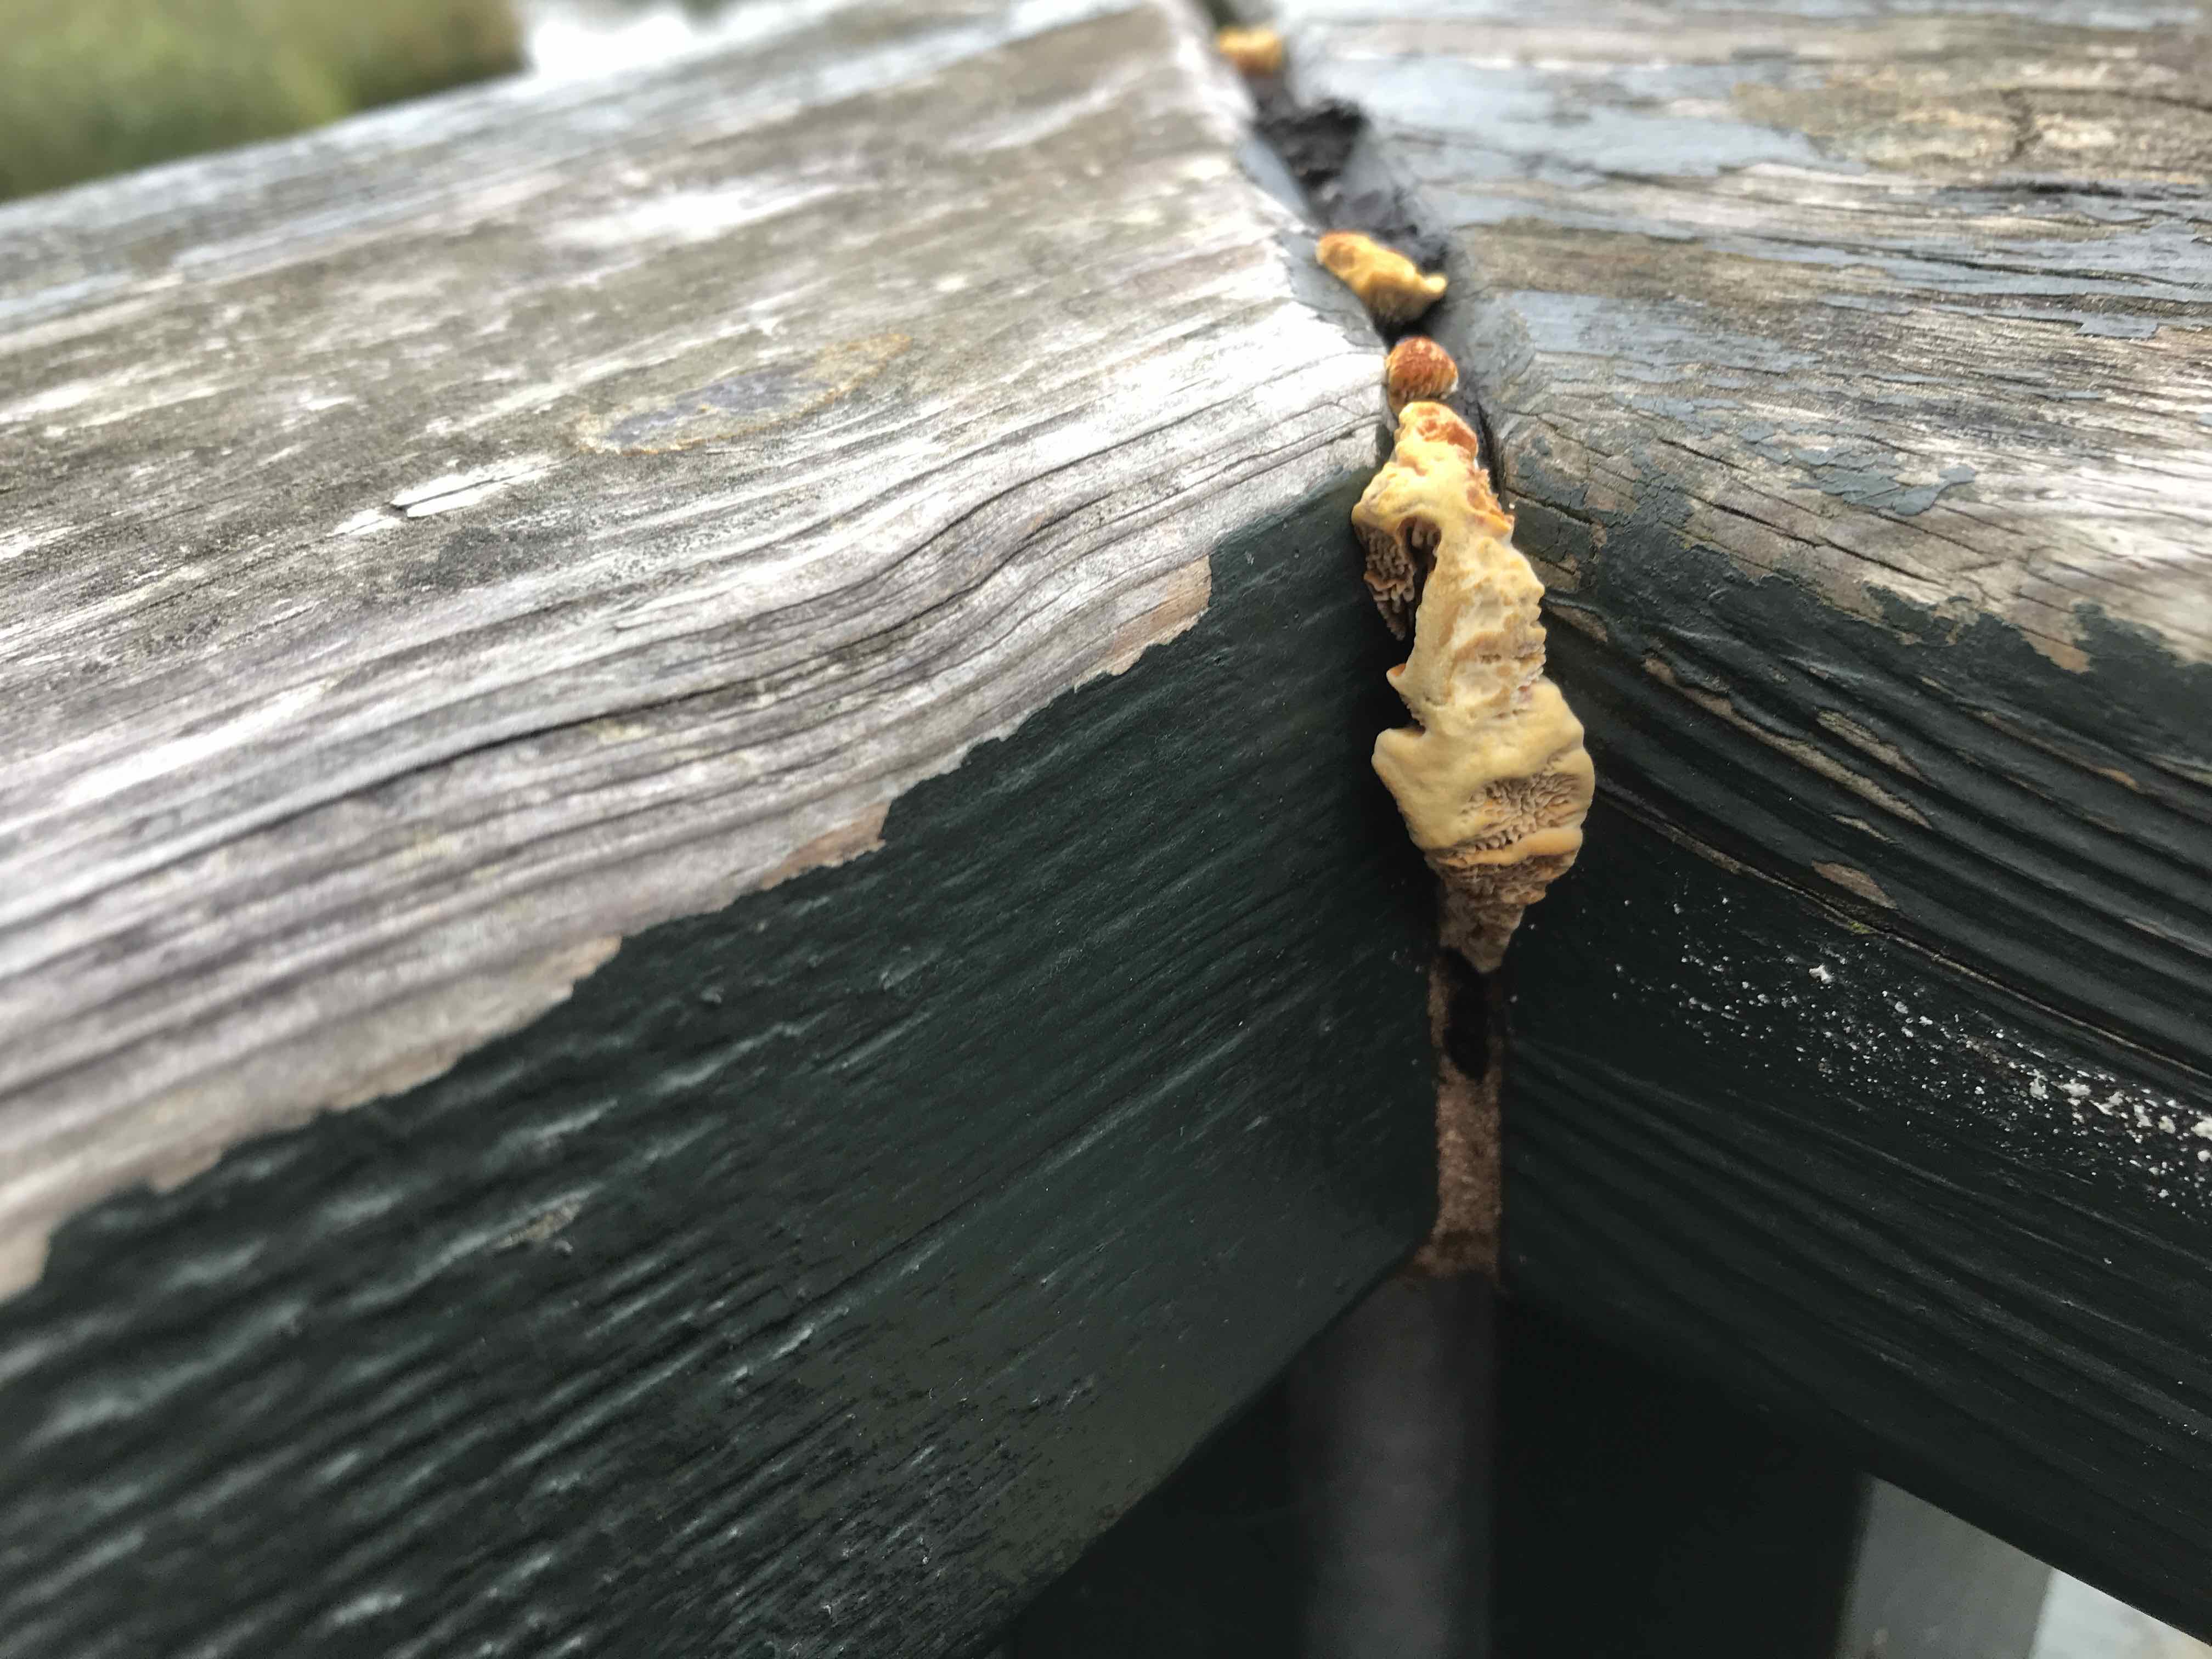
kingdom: Fungi
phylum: Basidiomycota
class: Agaricomycetes
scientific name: Agaricomycetes
